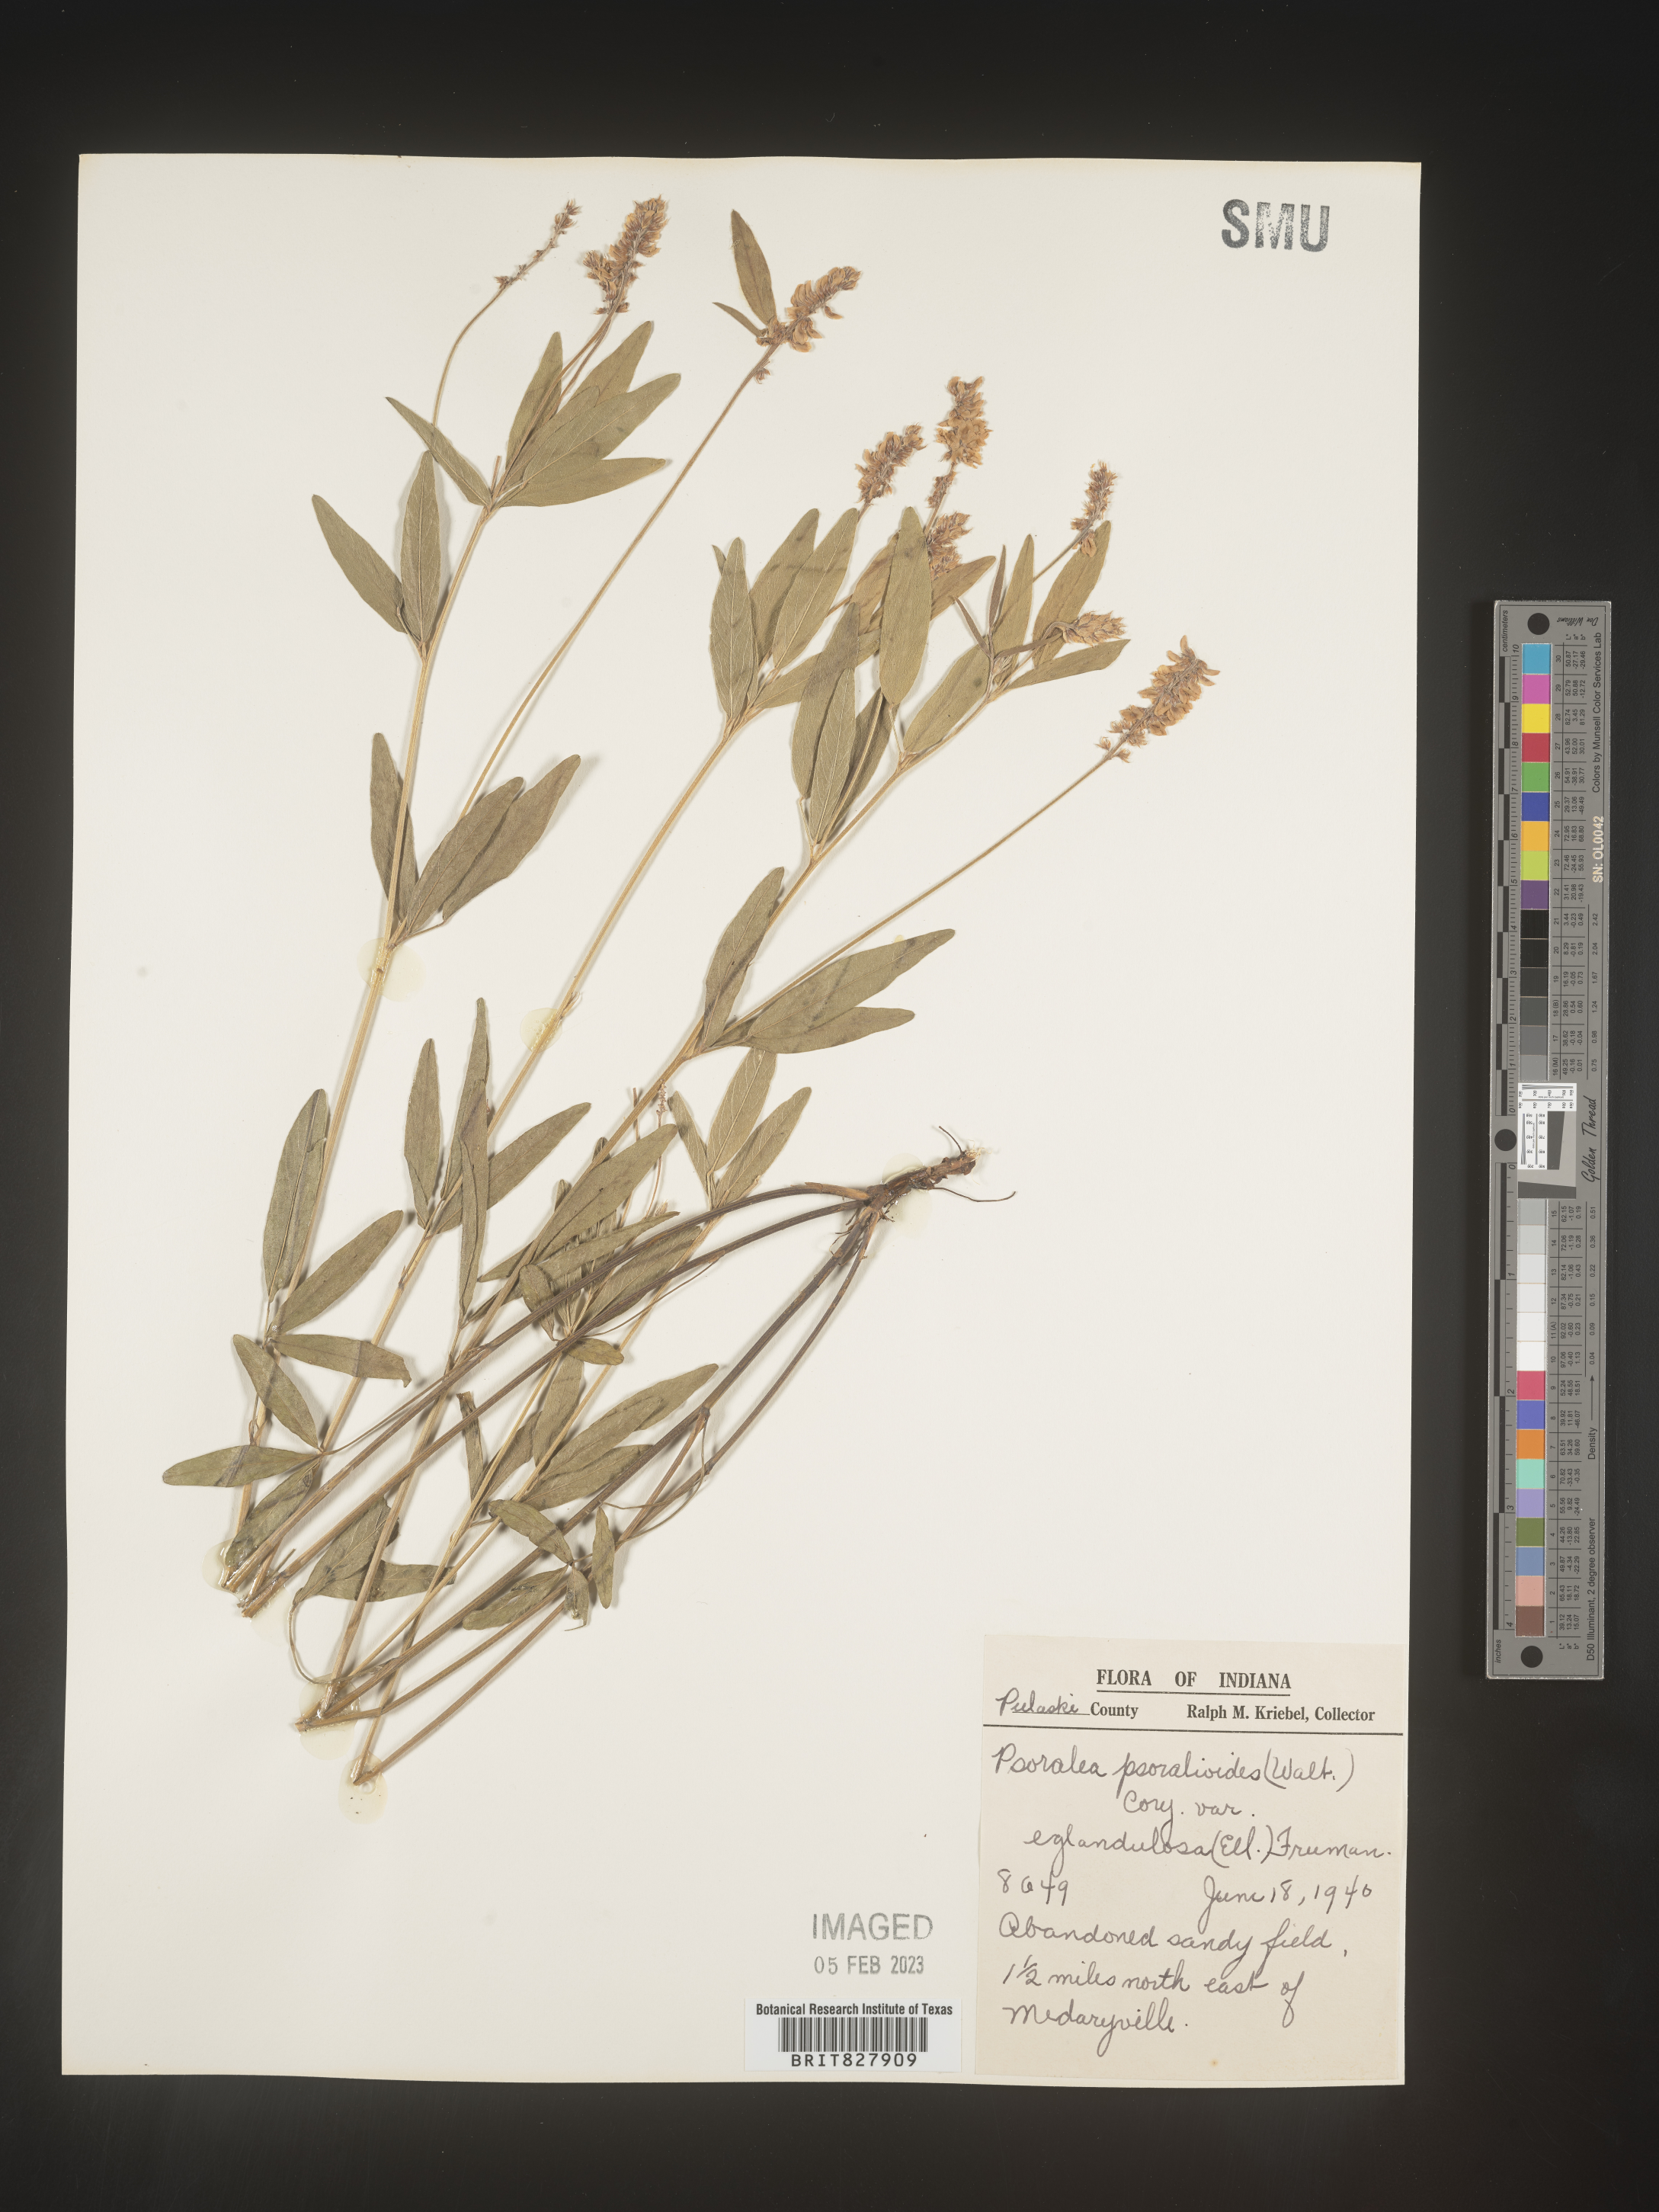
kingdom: Plantae
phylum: Tracheophyta
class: Magnoliopsida
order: Fabales
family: Fabaceae
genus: Orbexilum
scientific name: Orbexilum pedunculatum
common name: Sampson's snakeroot
